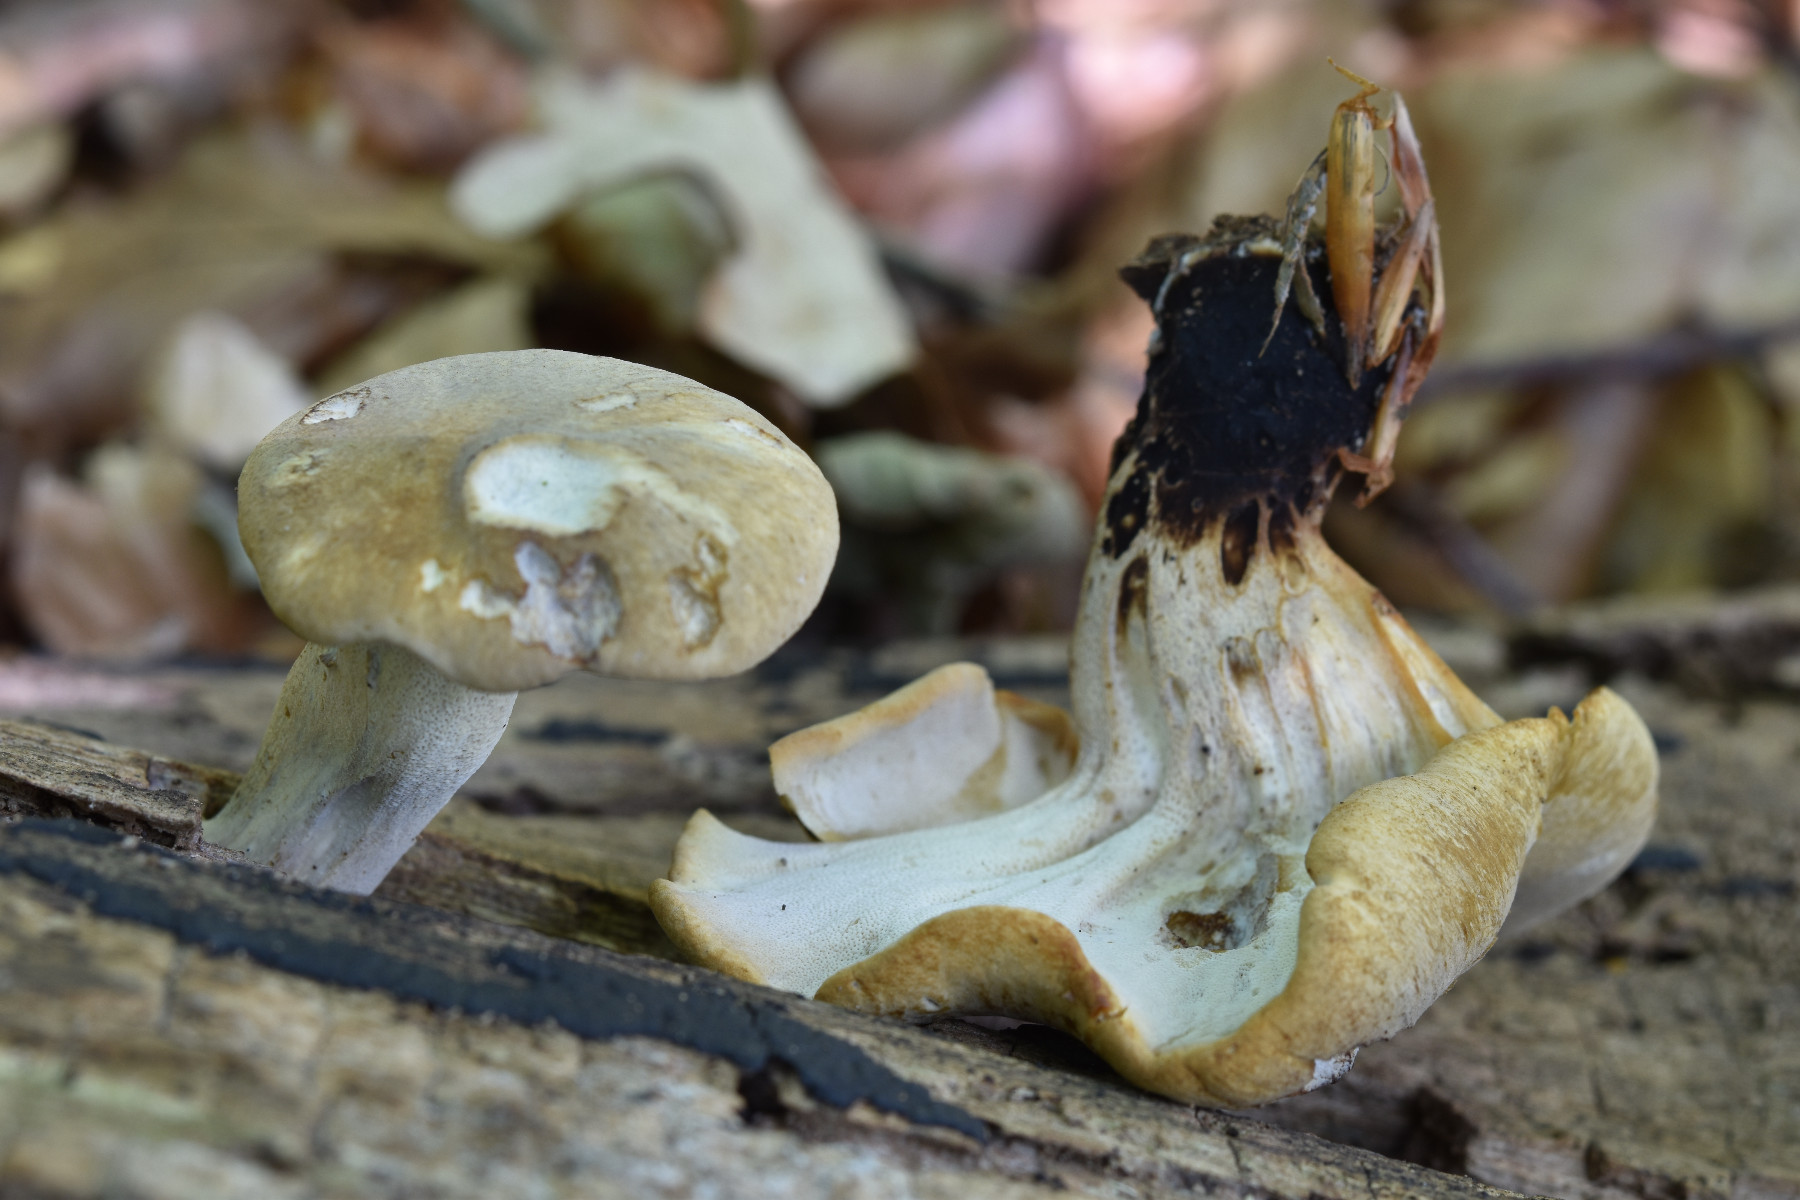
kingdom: Fungi
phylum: Basidiomycota
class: Agaricomycetes
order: Polyporales
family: Polyporaceae
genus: Cerioporus
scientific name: Cerioporus varius
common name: foranderlig stilkporesvamp
